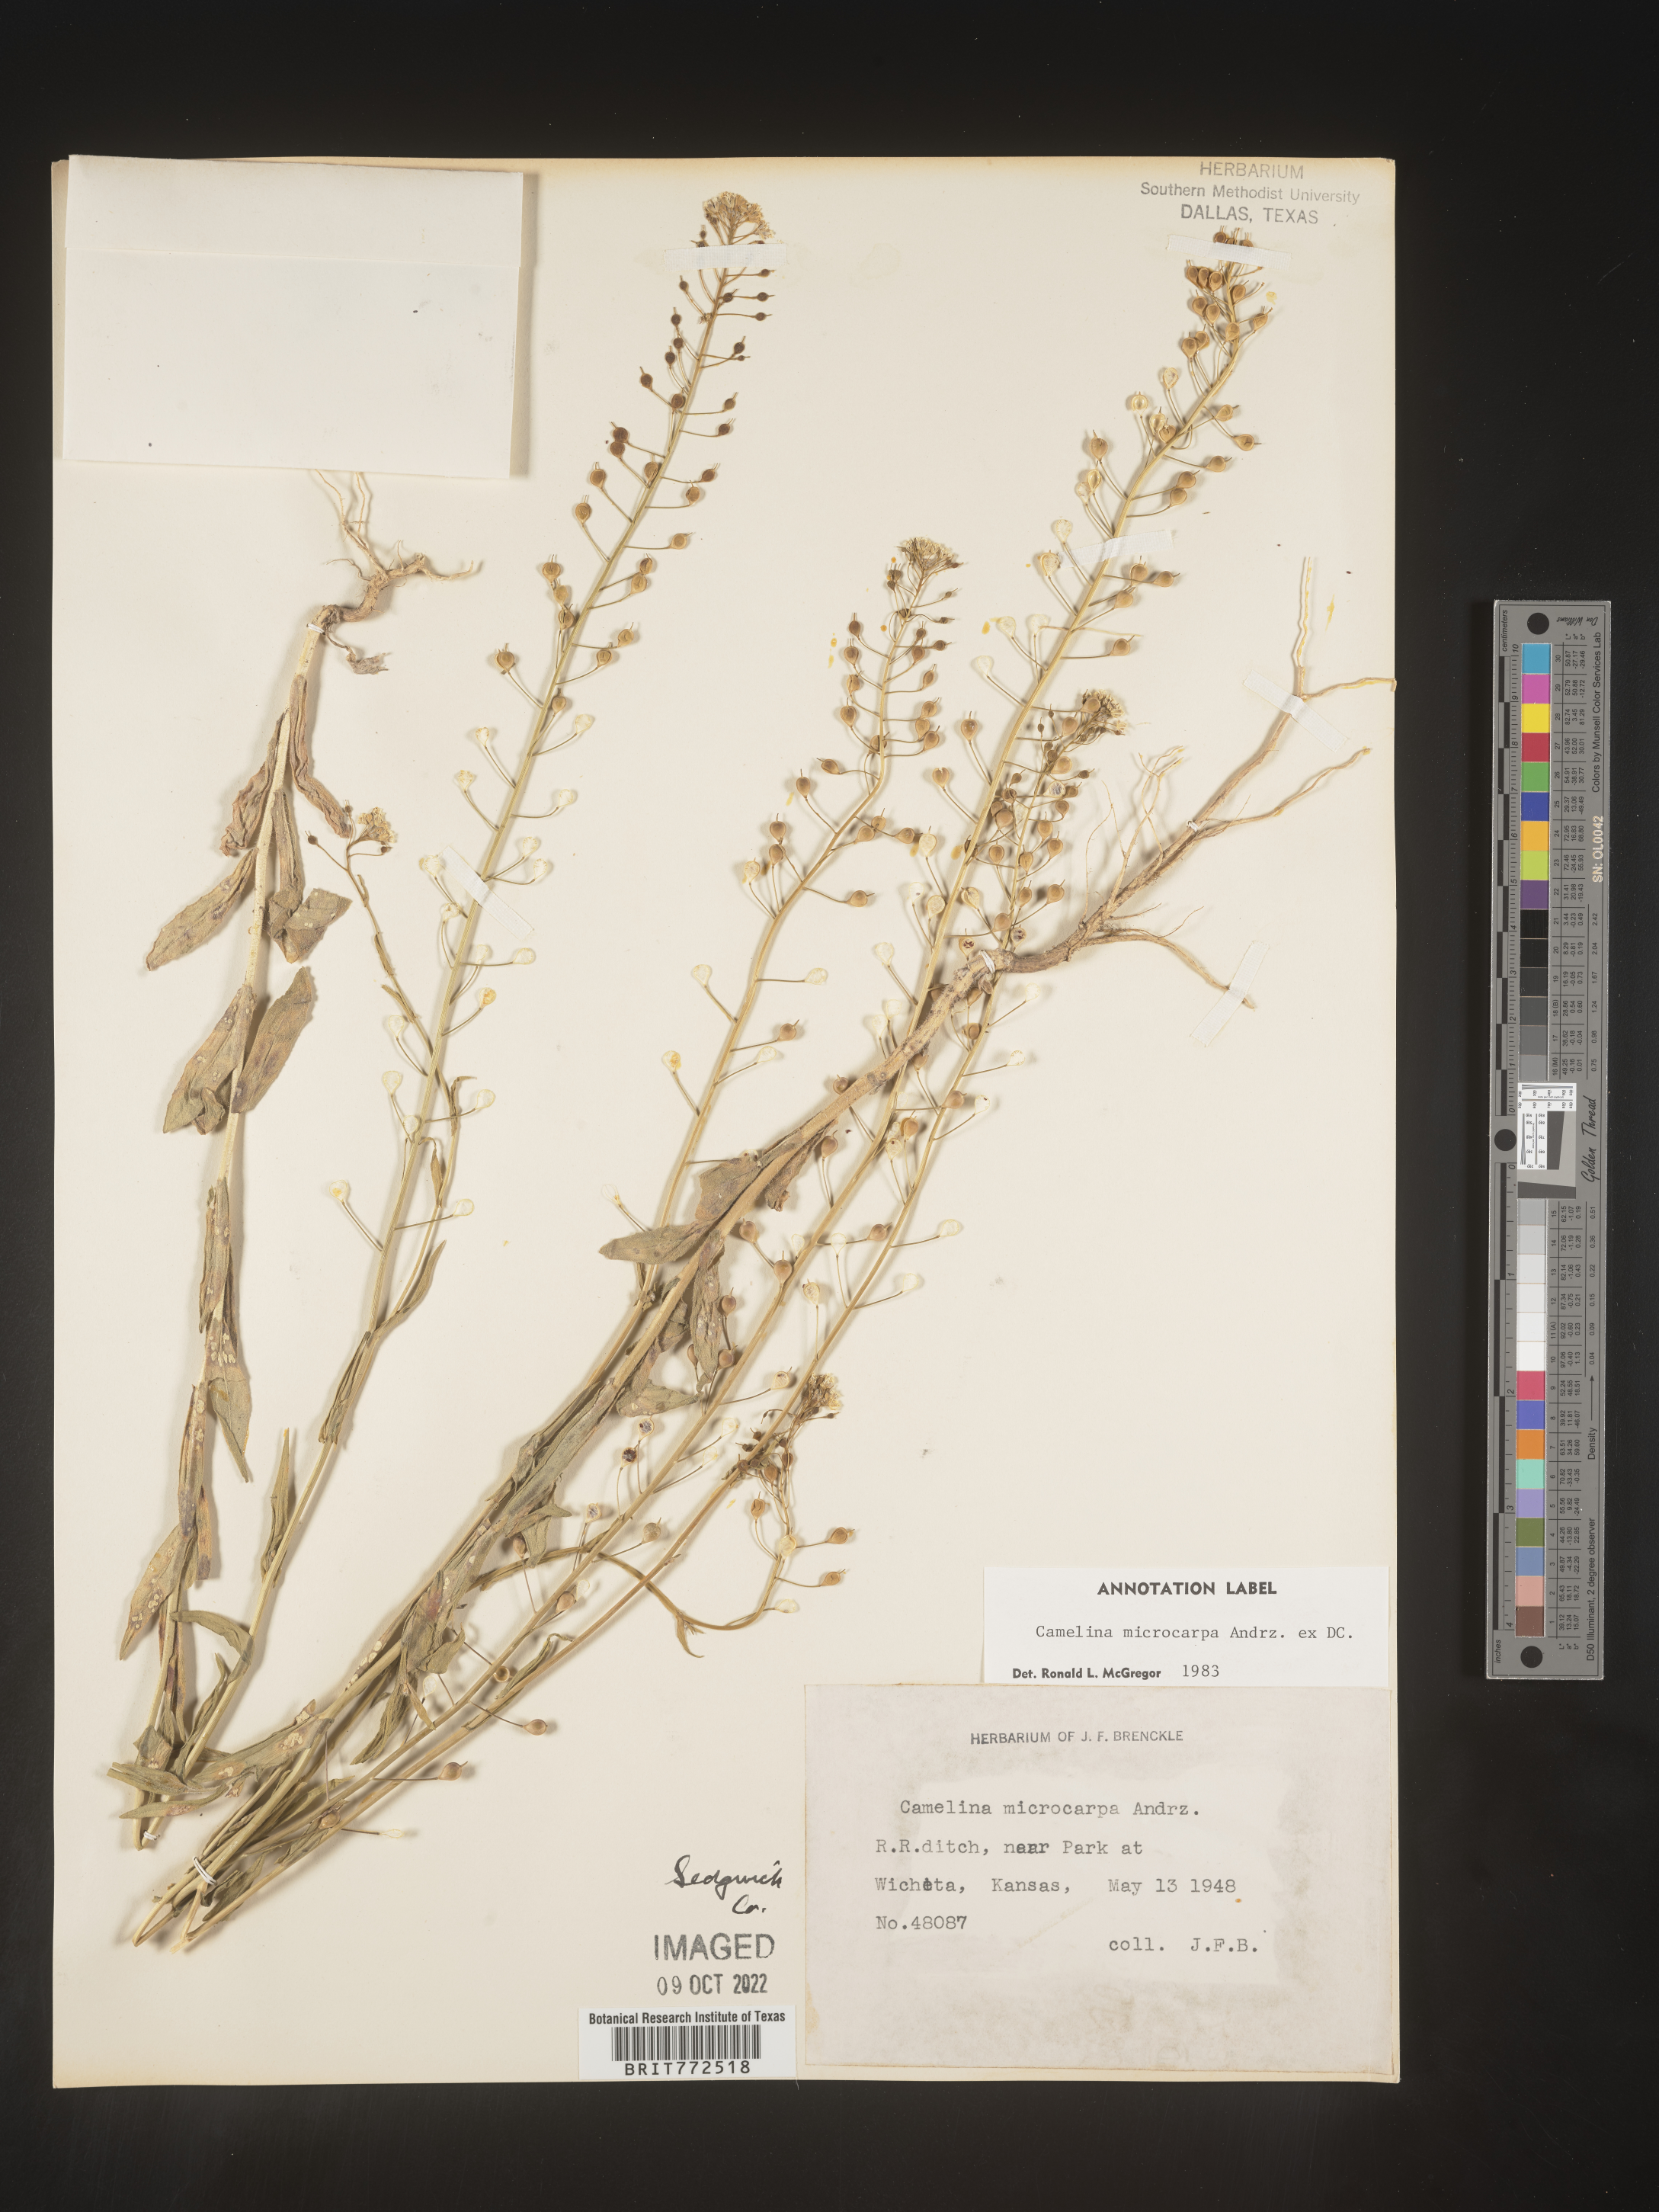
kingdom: Plantae
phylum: Tracheophyta
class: Magnoliopsida
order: Brassicales
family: Brassicaceae
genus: Camelina
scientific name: Camelina microcarpa
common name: Lesser gold-of-pleasure
